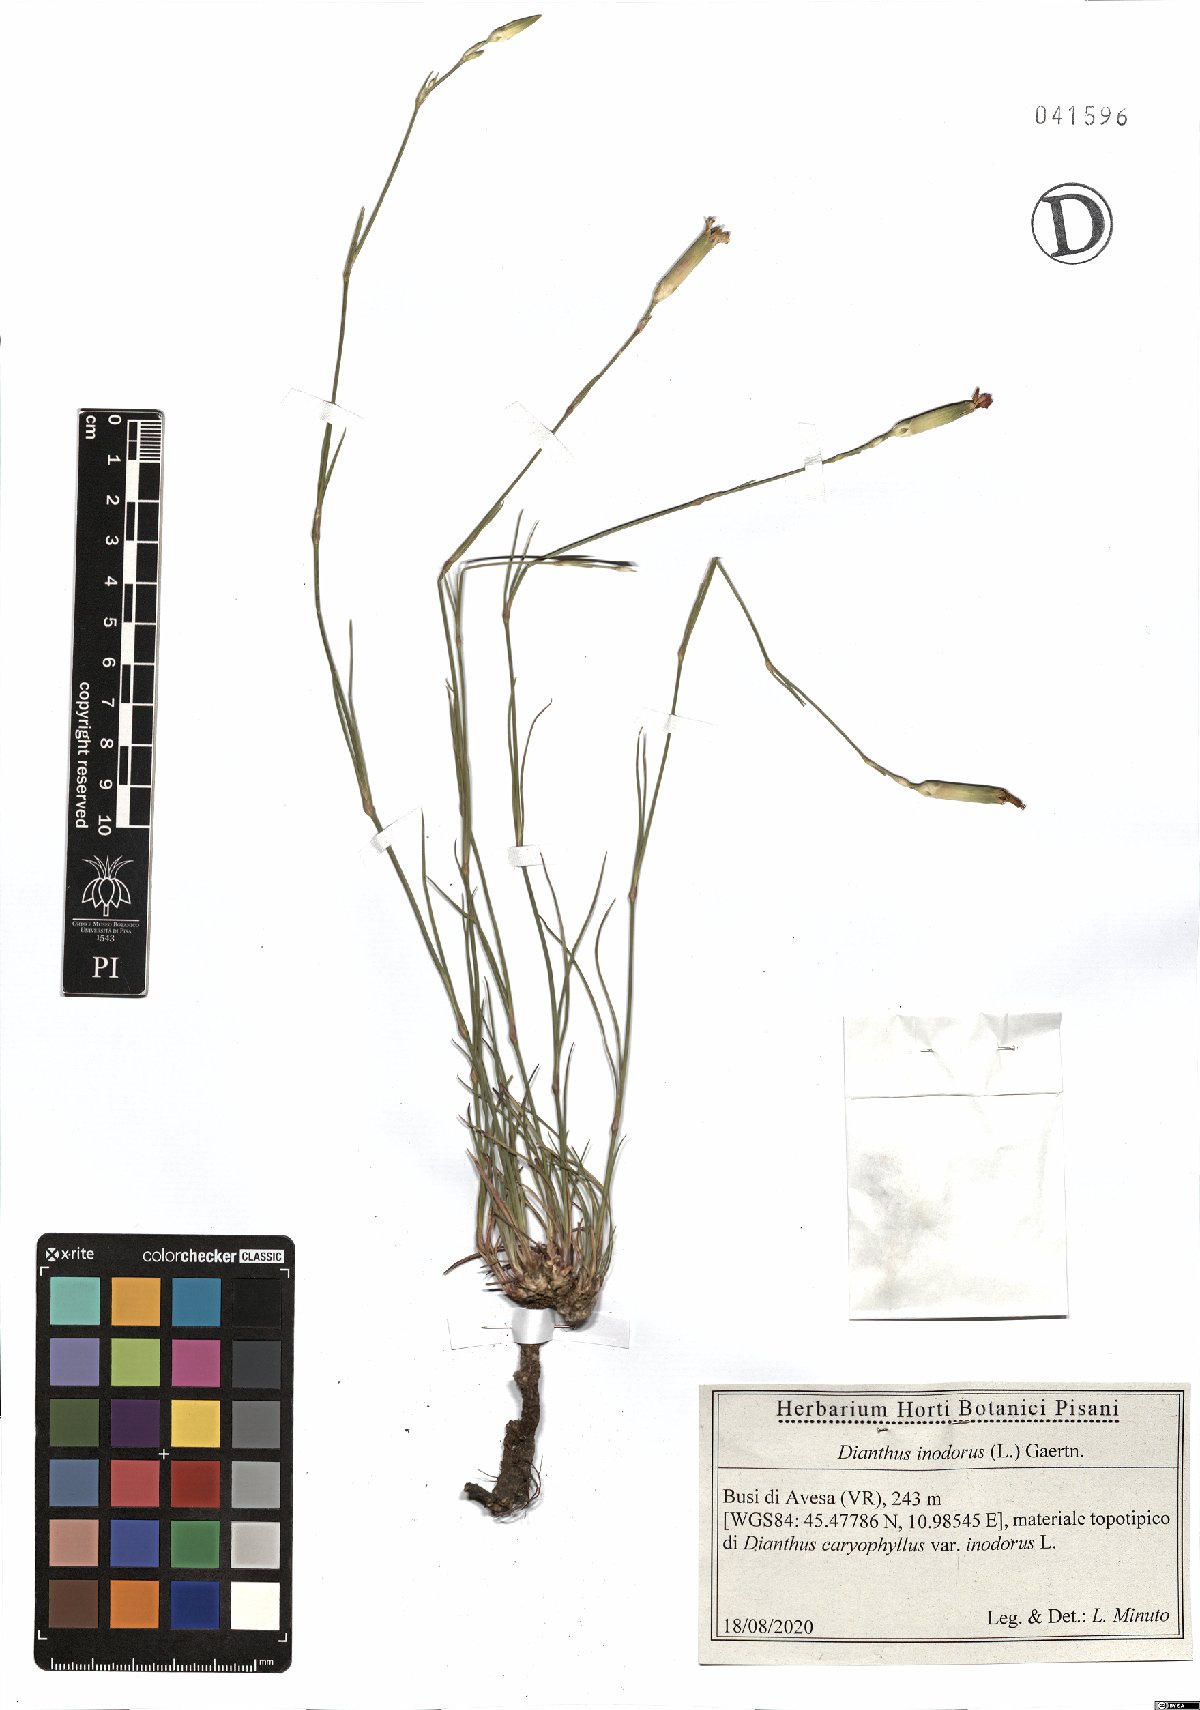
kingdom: Plantae
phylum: Tracheophyta
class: Magnoliopsida
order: Caryophyllales
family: Caryophyllaceae
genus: Dianthus
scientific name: Dianthus sylvestris
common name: Wood pink
